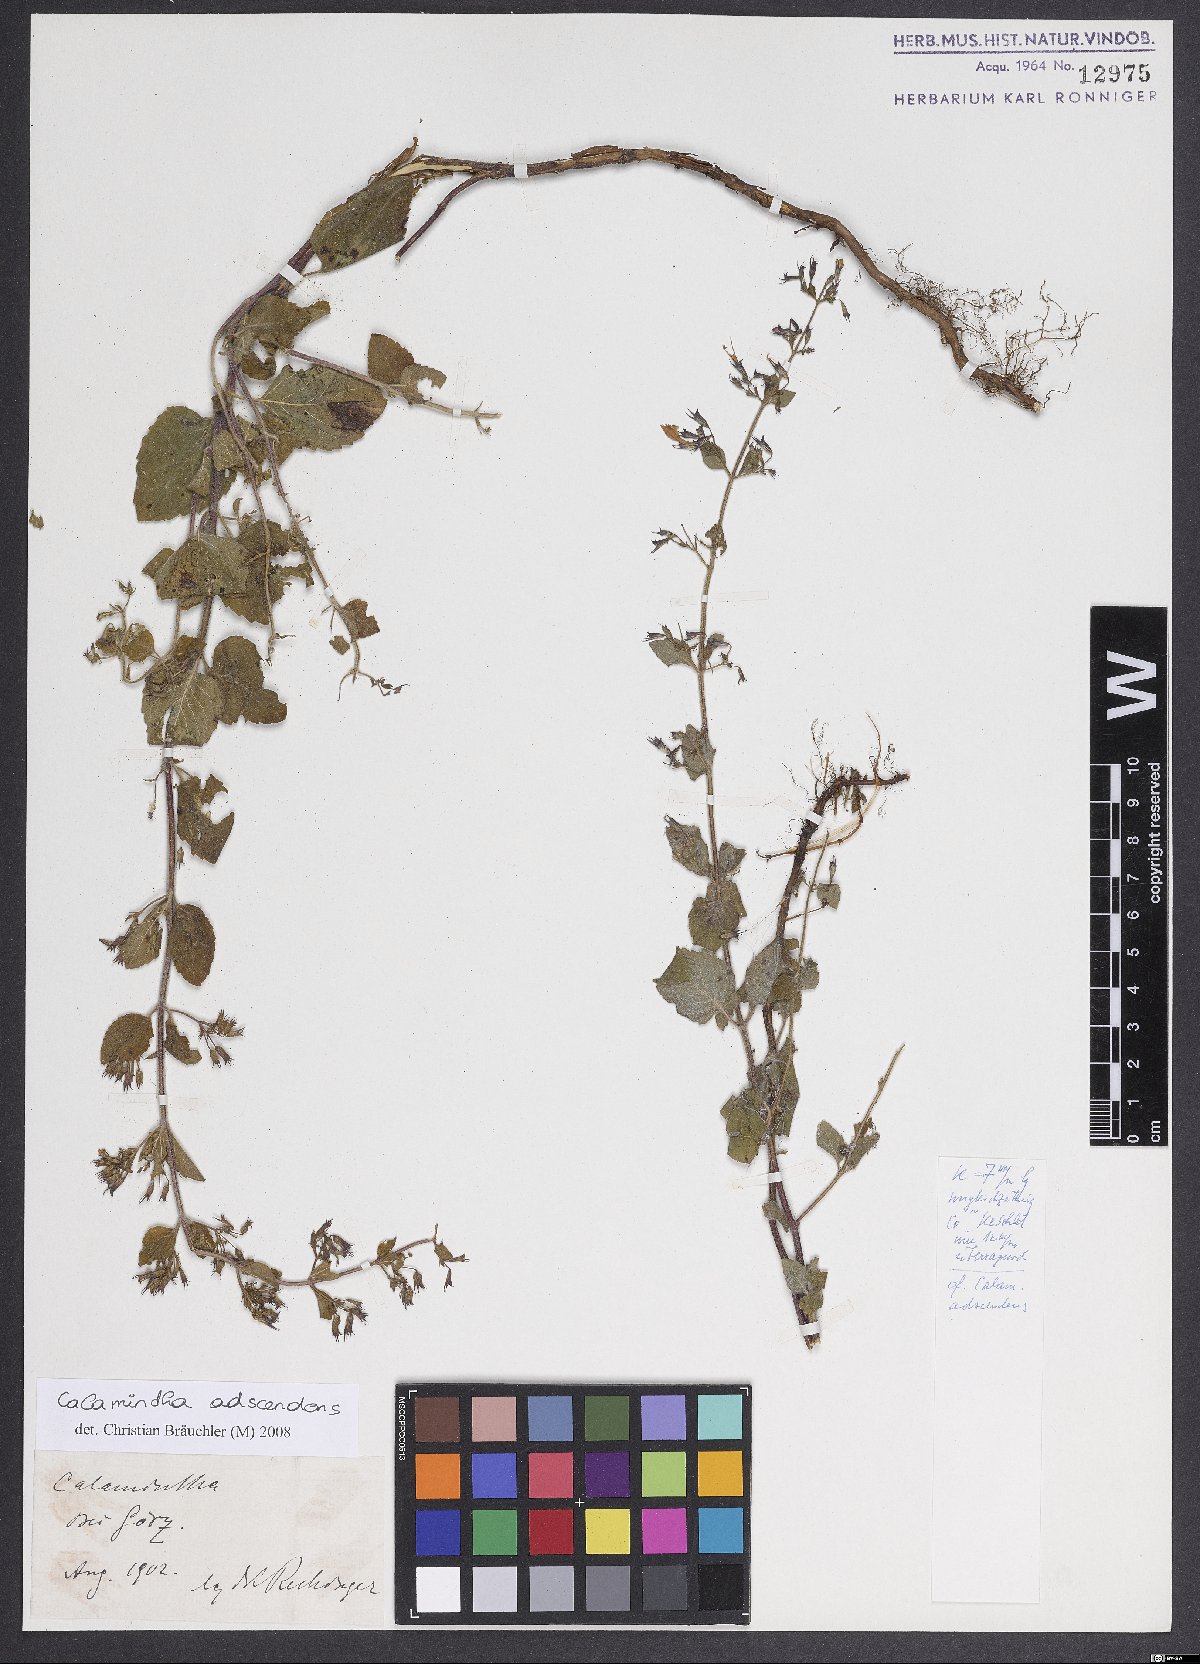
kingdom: Plantae
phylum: Tracheophyta
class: Magnoliopsida
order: Lamiales
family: Lamiaceae
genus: Clinopodium
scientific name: Clinopodium menthifolium
